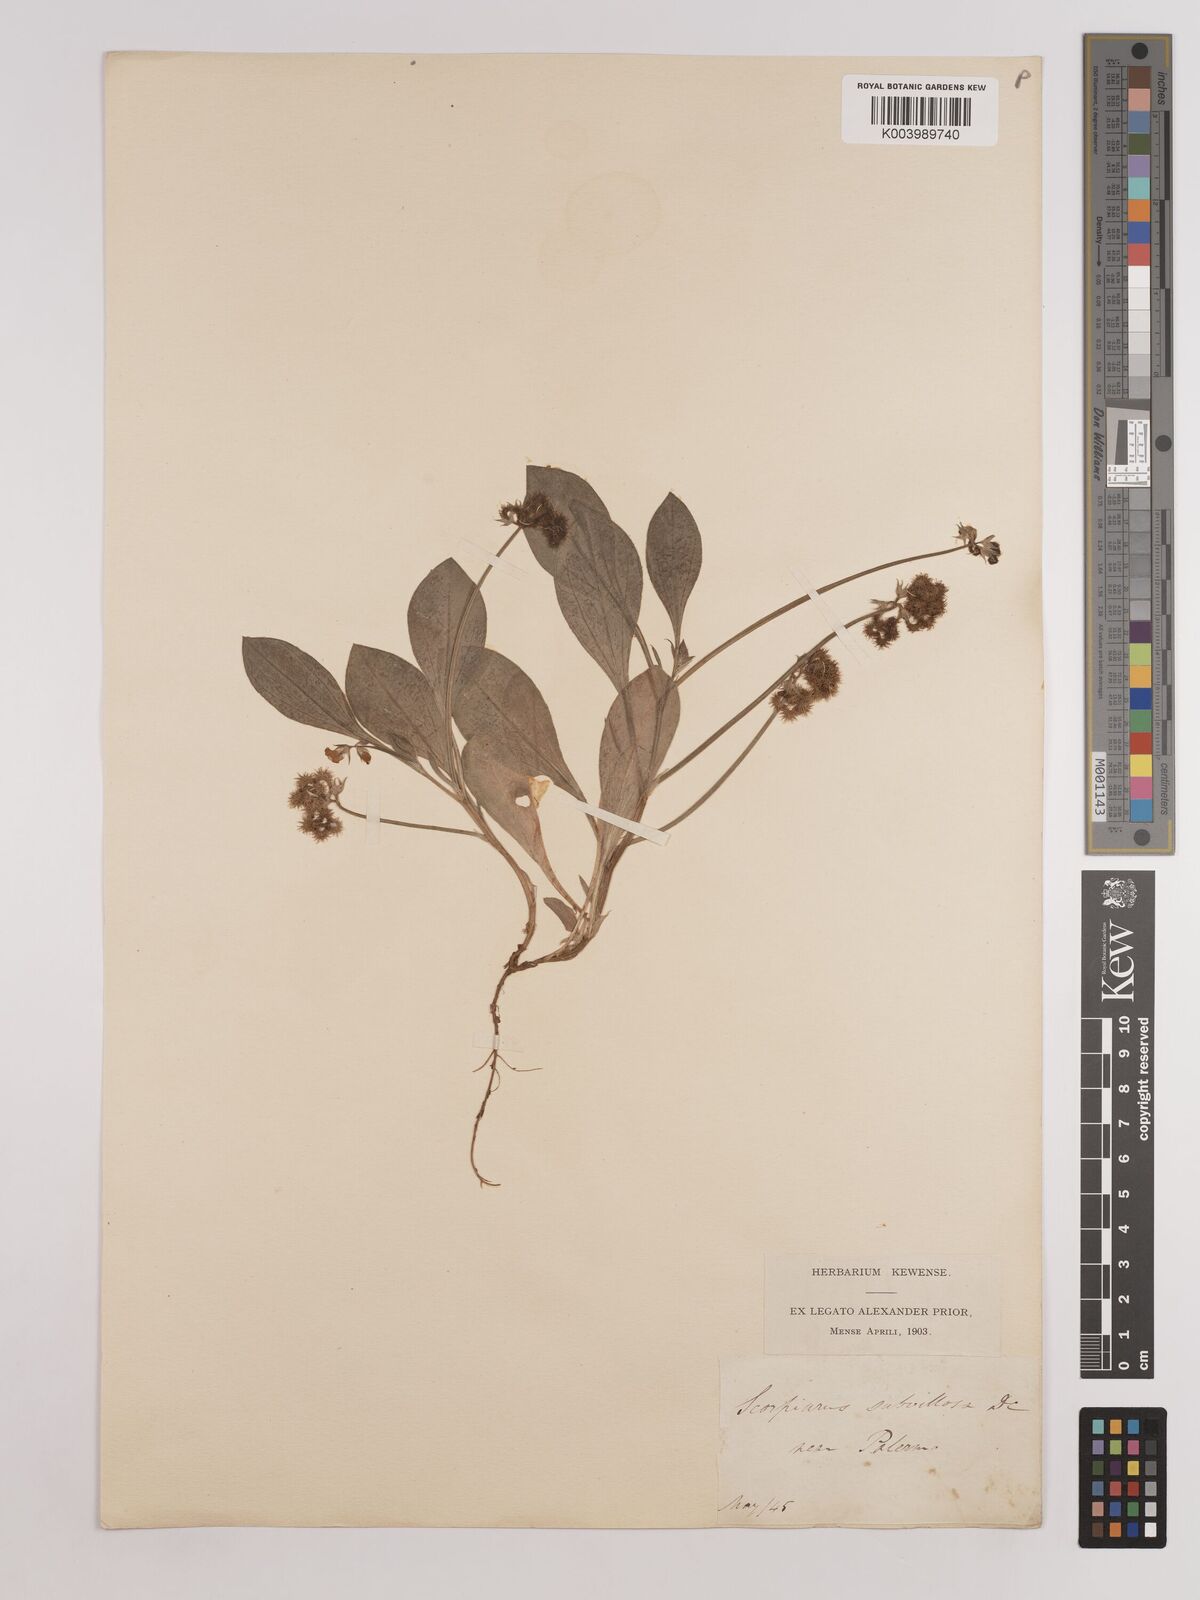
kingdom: Plantae
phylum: Tracheophyta
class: Magnoliopsida
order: Fabales
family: Fabaceae
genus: Scorpiurus
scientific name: Scorpiurus muricatus
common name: Caterpillar-plant
